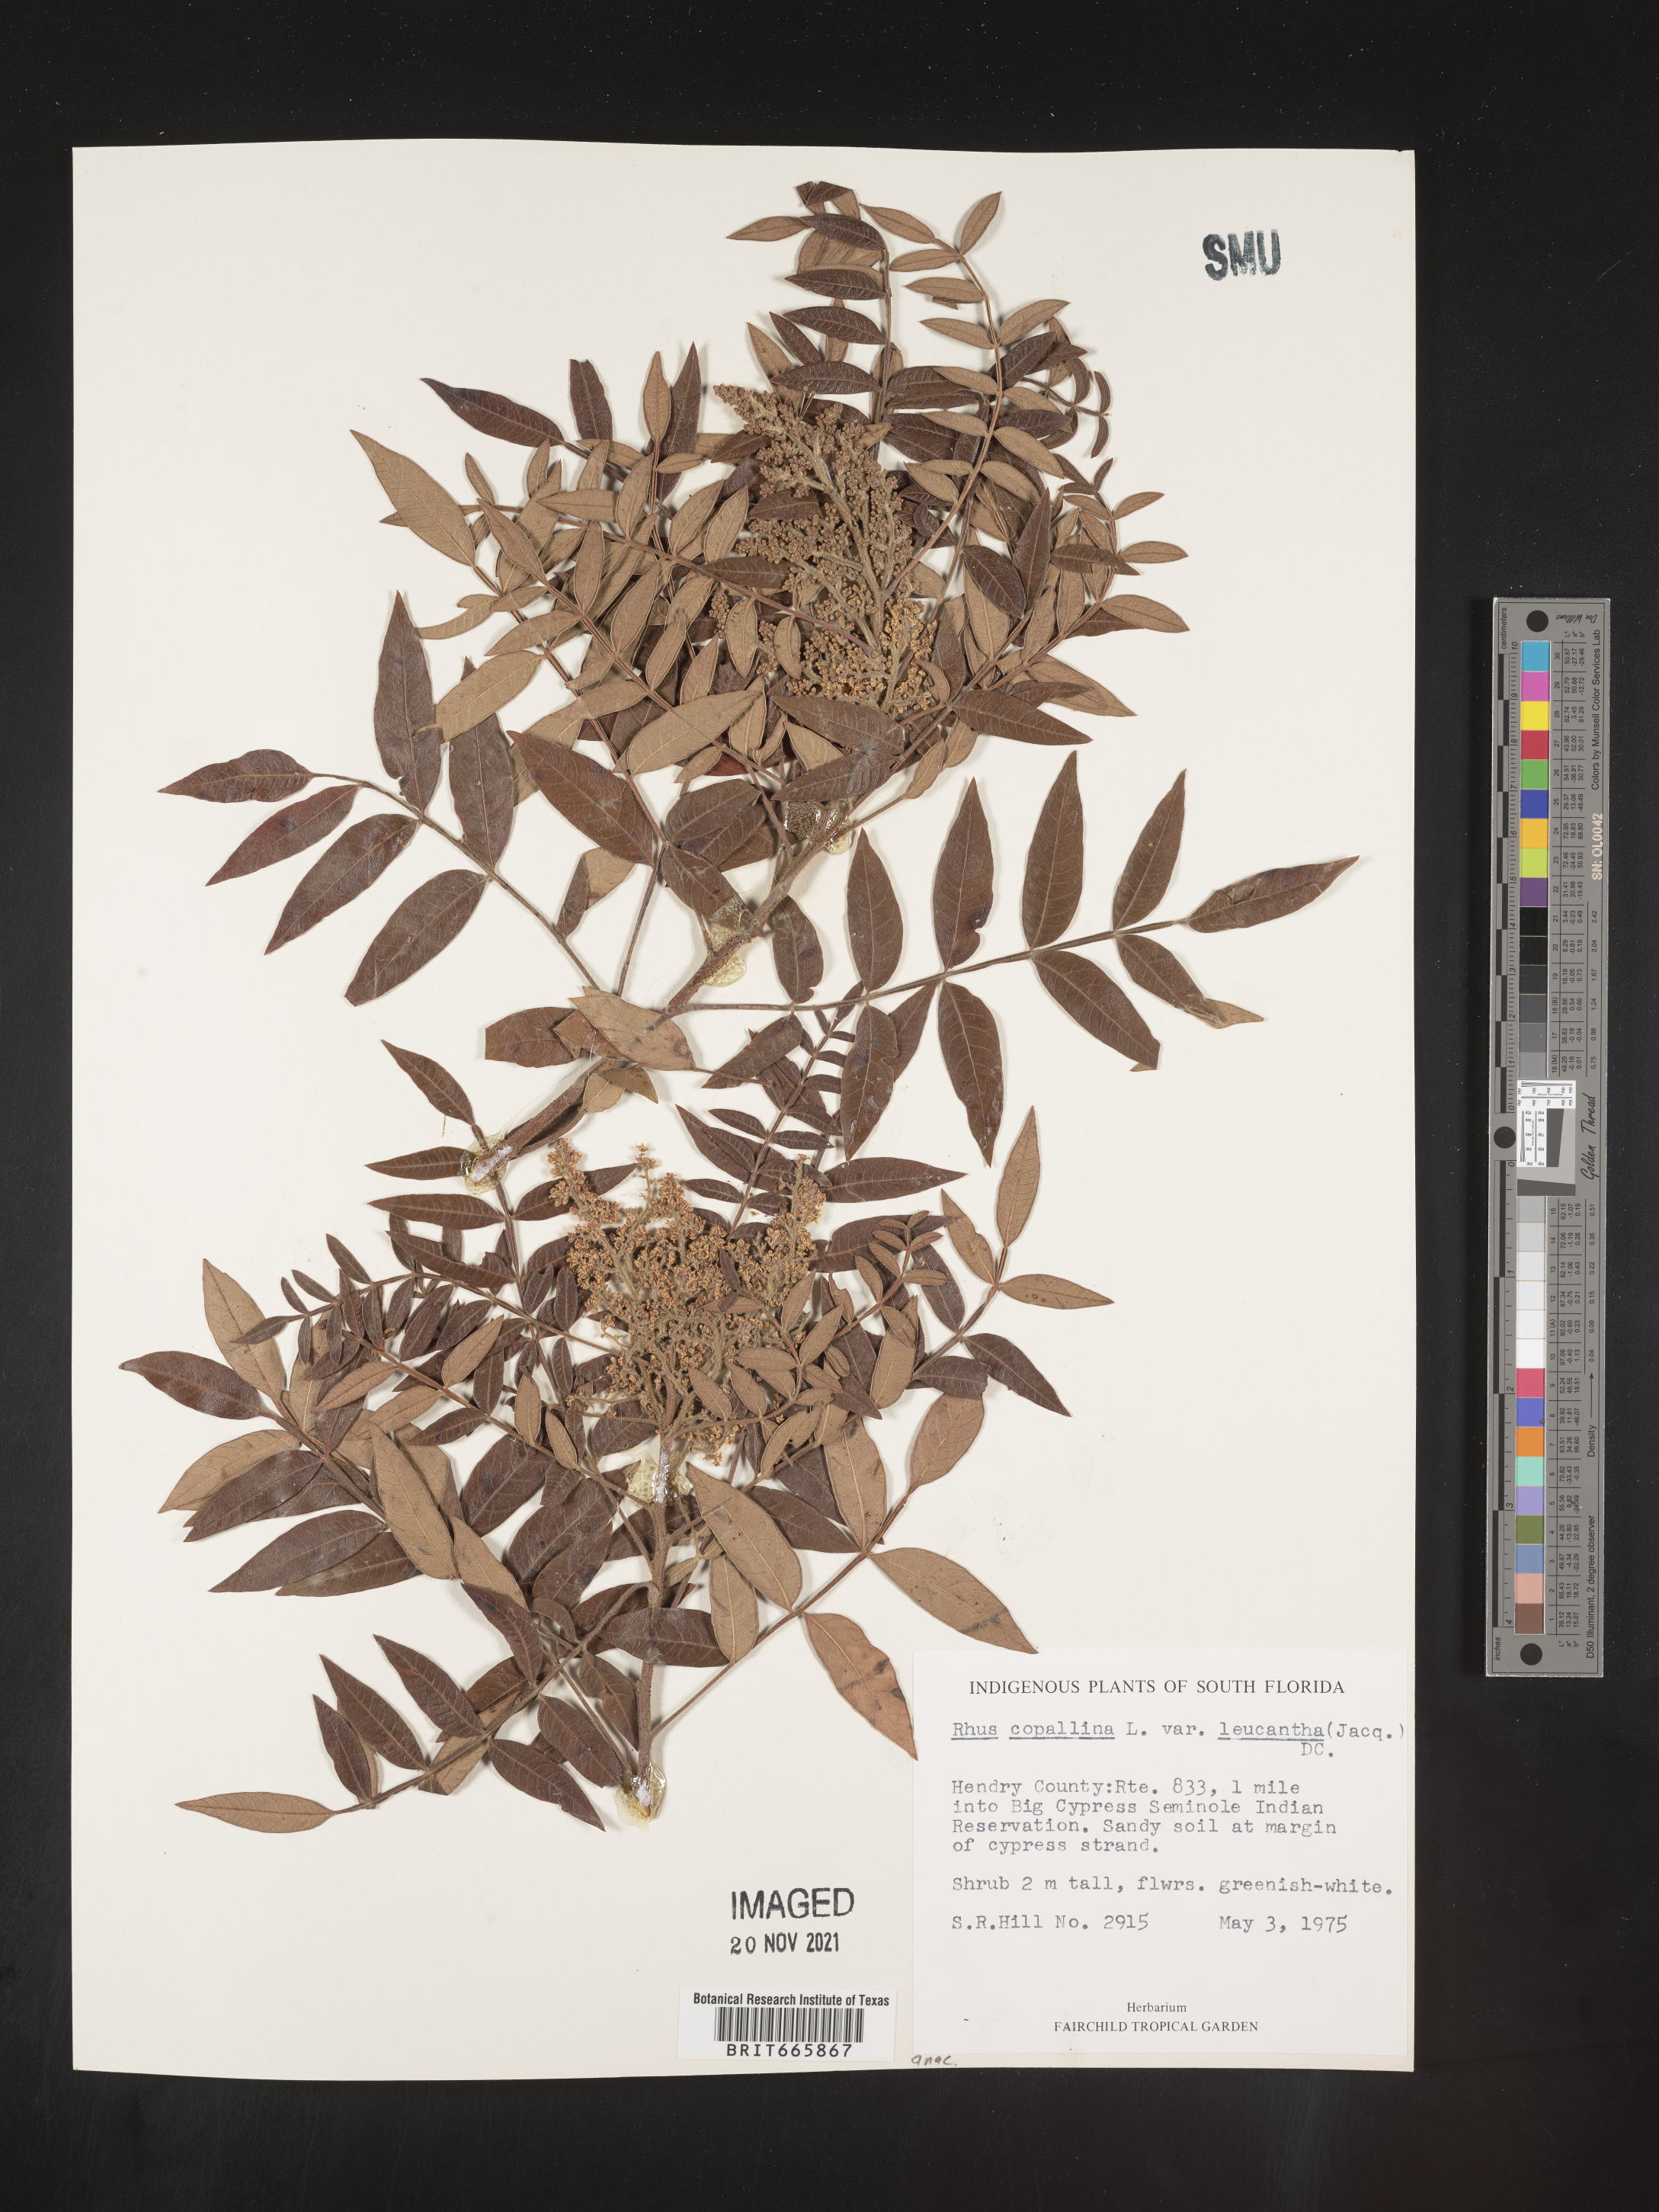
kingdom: Plantae
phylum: Tracheophyta
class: Magnoliopsida
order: Sapindales
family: Anacardiaceae
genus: Rhus
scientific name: Rhus copallina
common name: Shining sumac
